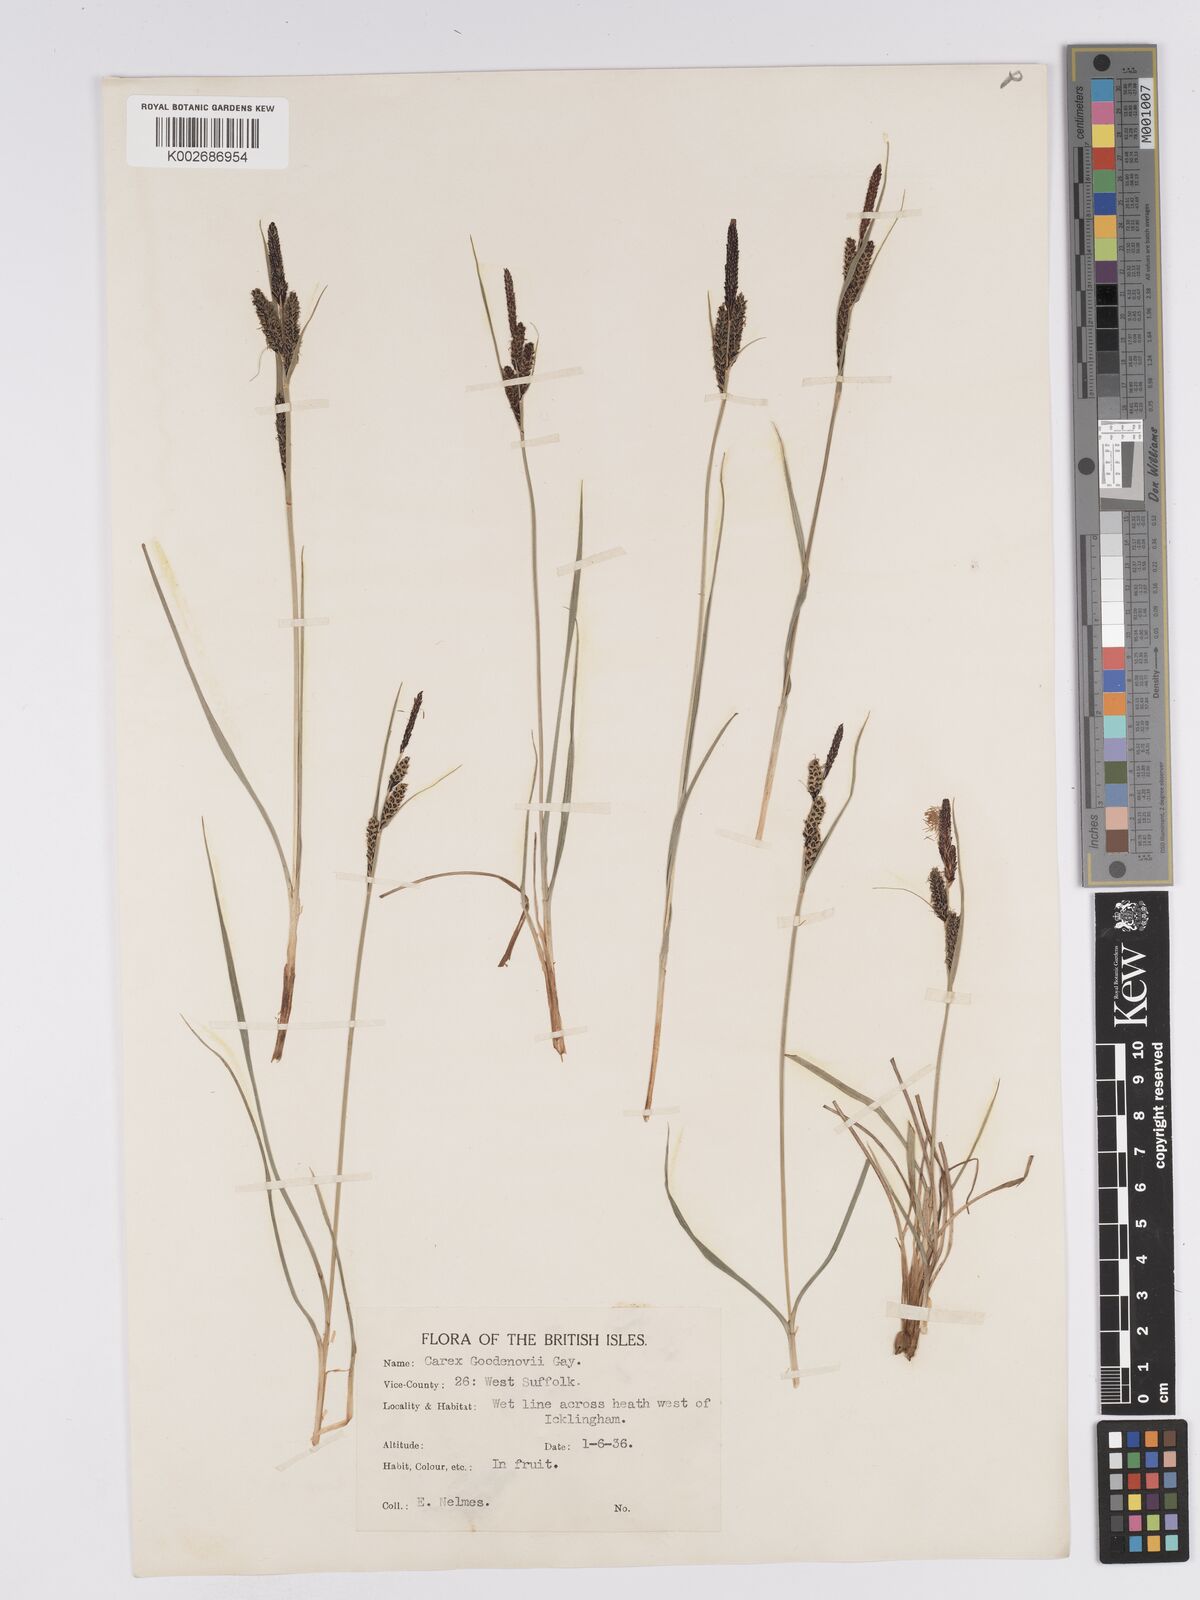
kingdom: Plantae
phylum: Tracheophyta
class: Liliopsida
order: Poales
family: Cyperaceae
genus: Carex
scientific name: Carex nigra
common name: Common sedge
